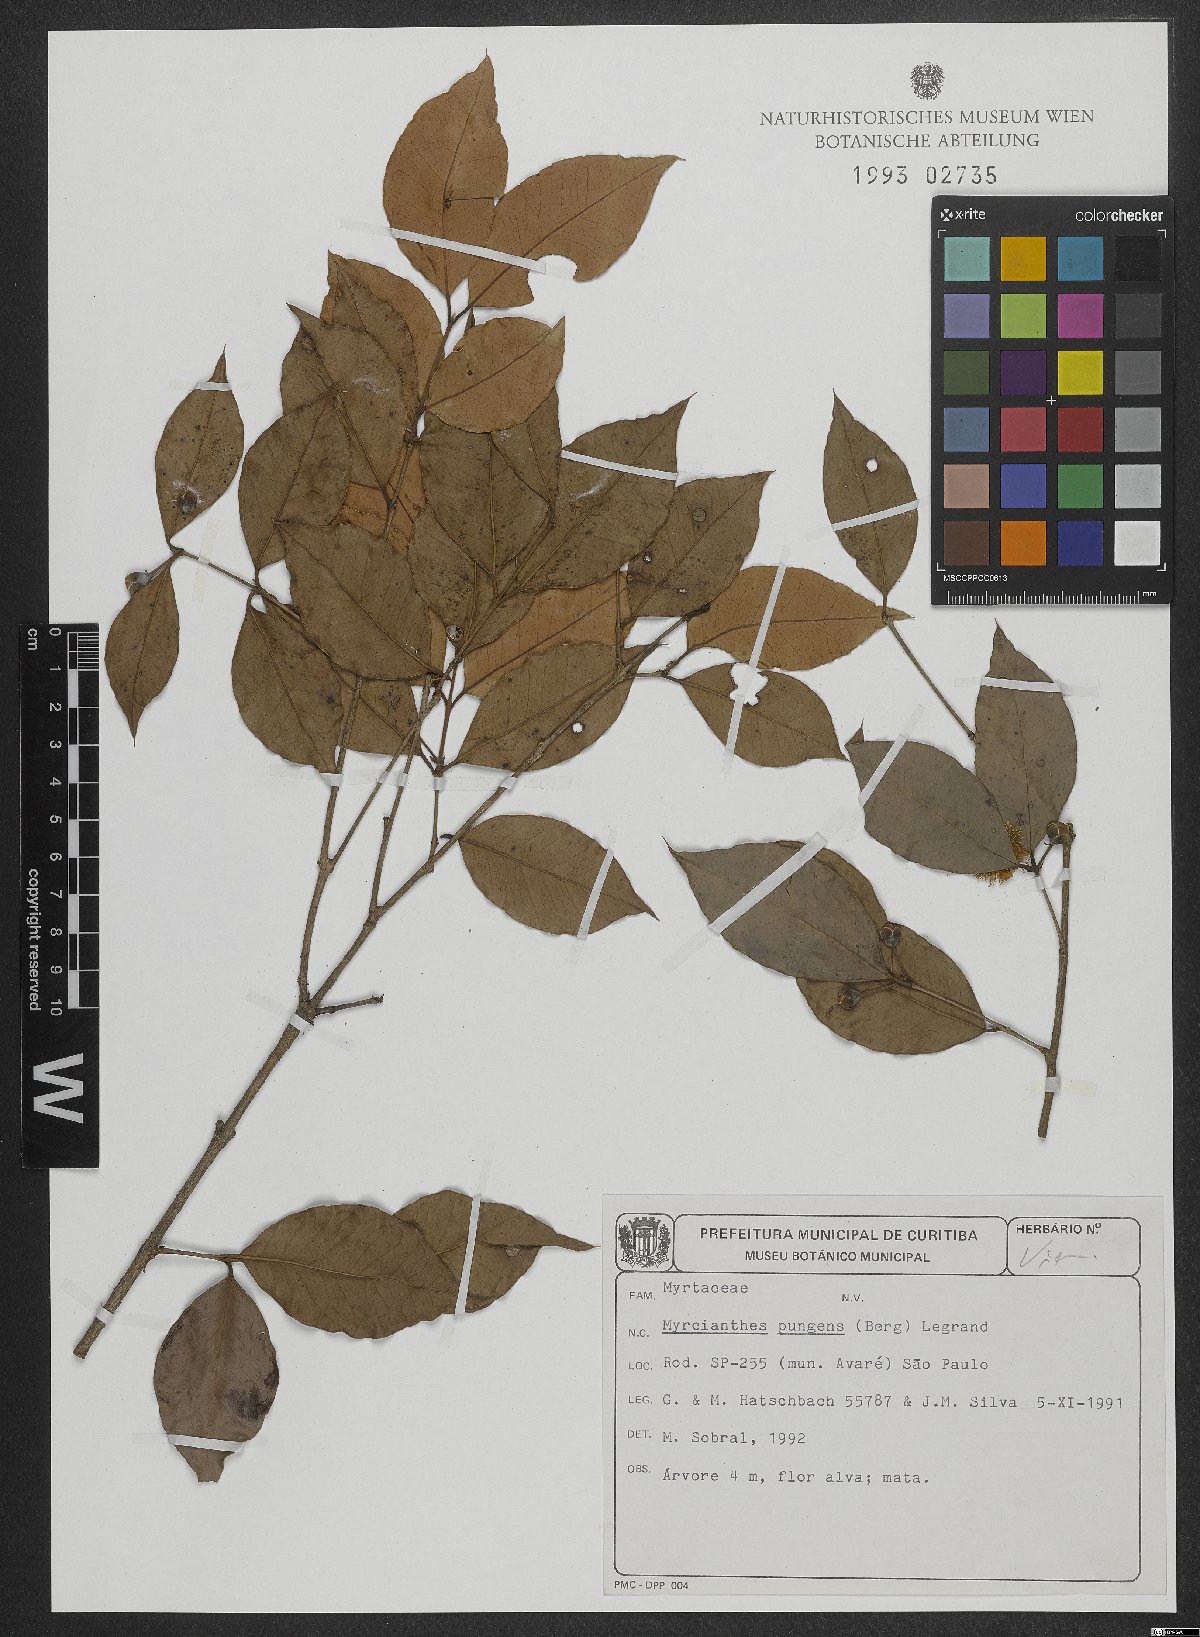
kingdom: Plantae
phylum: Tracheophyta
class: Magnoliopsida
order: Myrtales
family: Myrtaceae
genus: Myrcianthes
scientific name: Myrcianthes pungens
